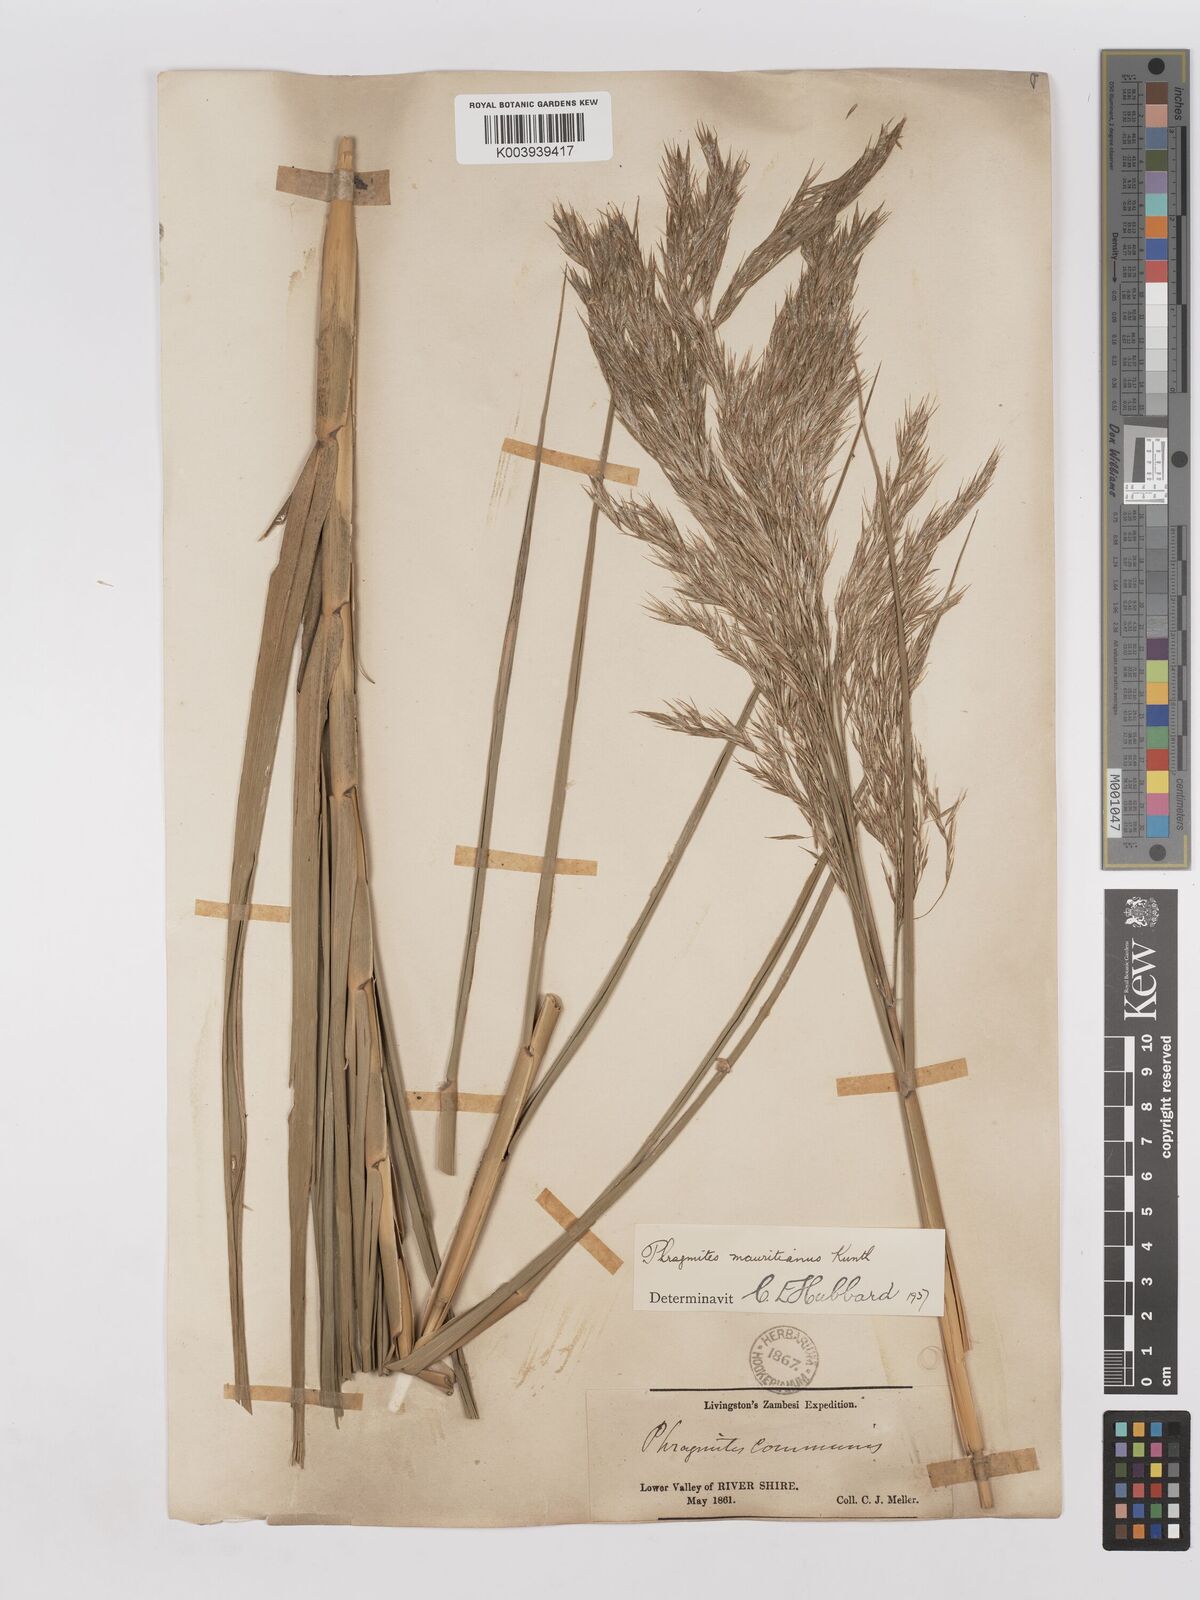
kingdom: Plantae
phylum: Tracheophyta
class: Liliopsida
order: Poales
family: Poaceae
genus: Phragmites
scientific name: Phragmites mauritianus
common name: Reed grass
